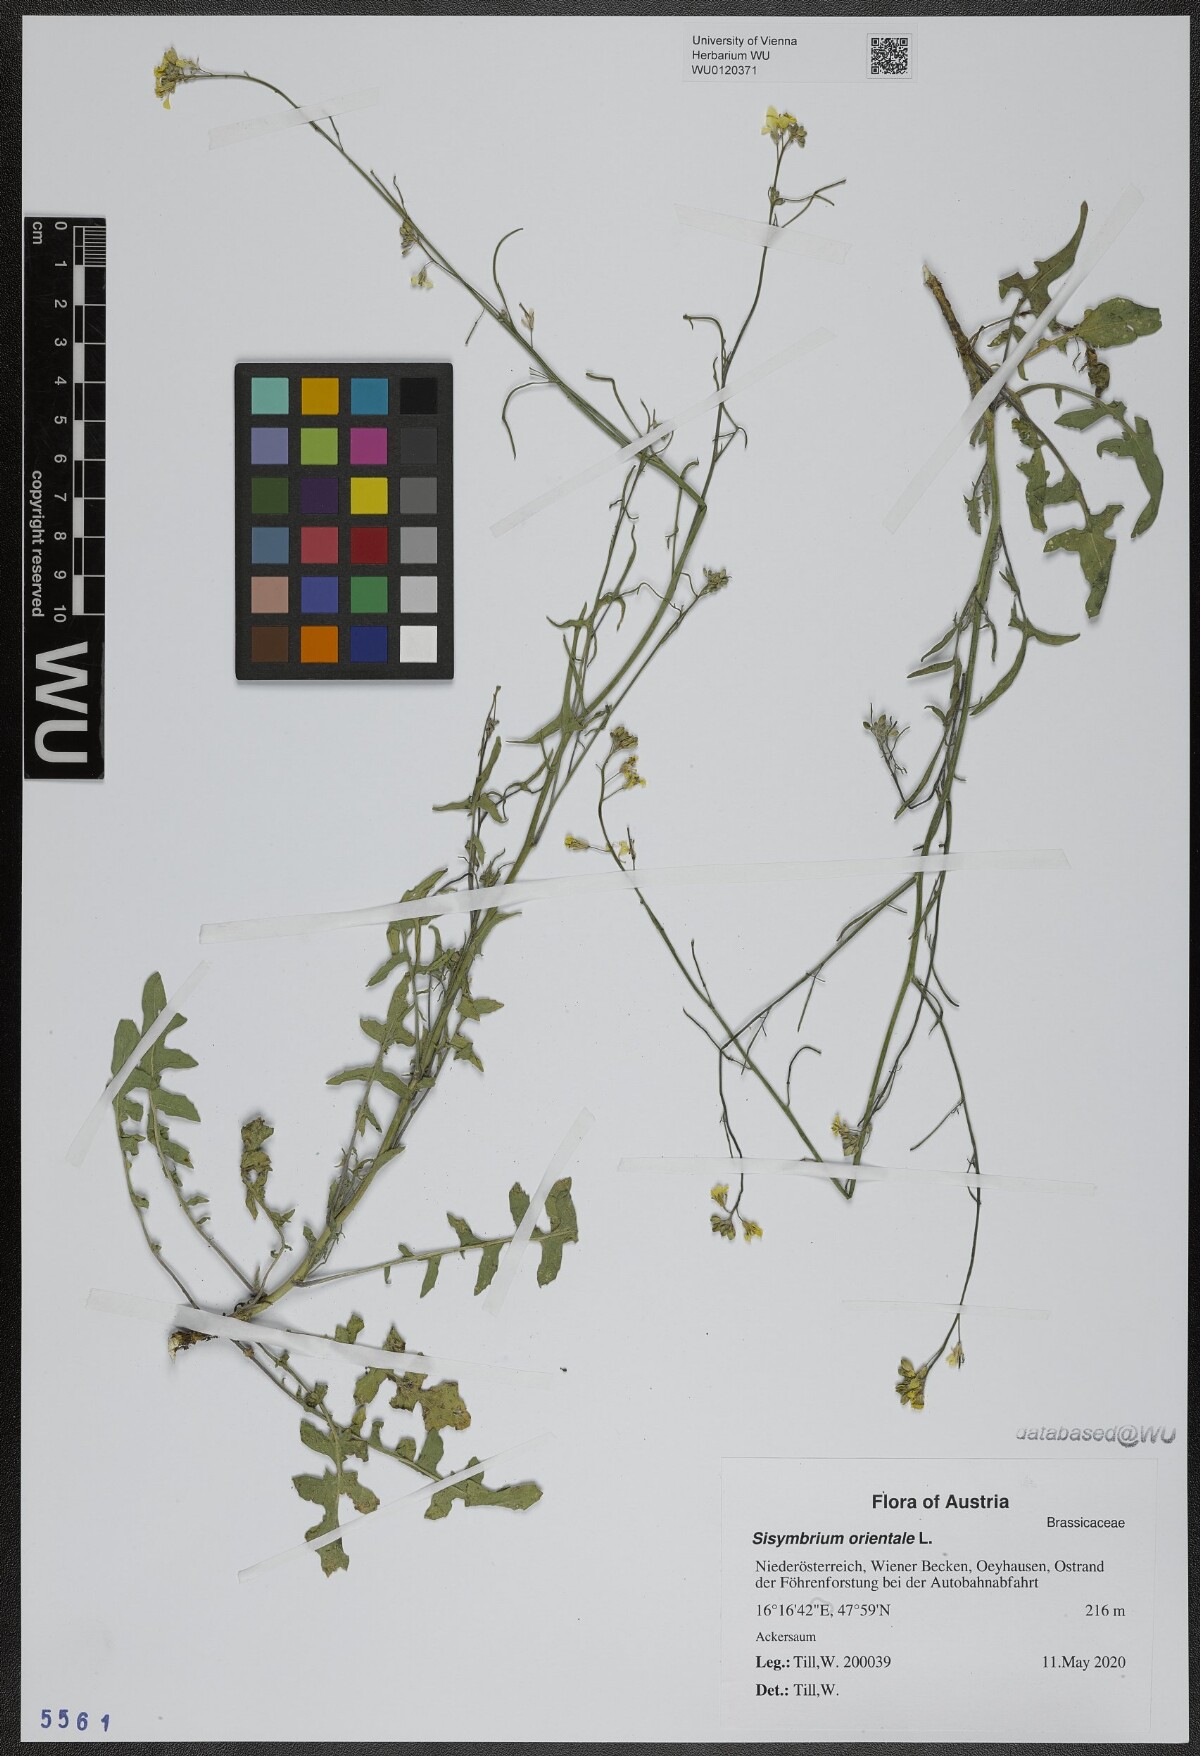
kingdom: Plantae
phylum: Tracheophyta
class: Magnoliopsida
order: Brassicales
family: Brassicaceae
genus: Sisymbrium
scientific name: Sisymbrium orientale
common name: Eastern rocket
